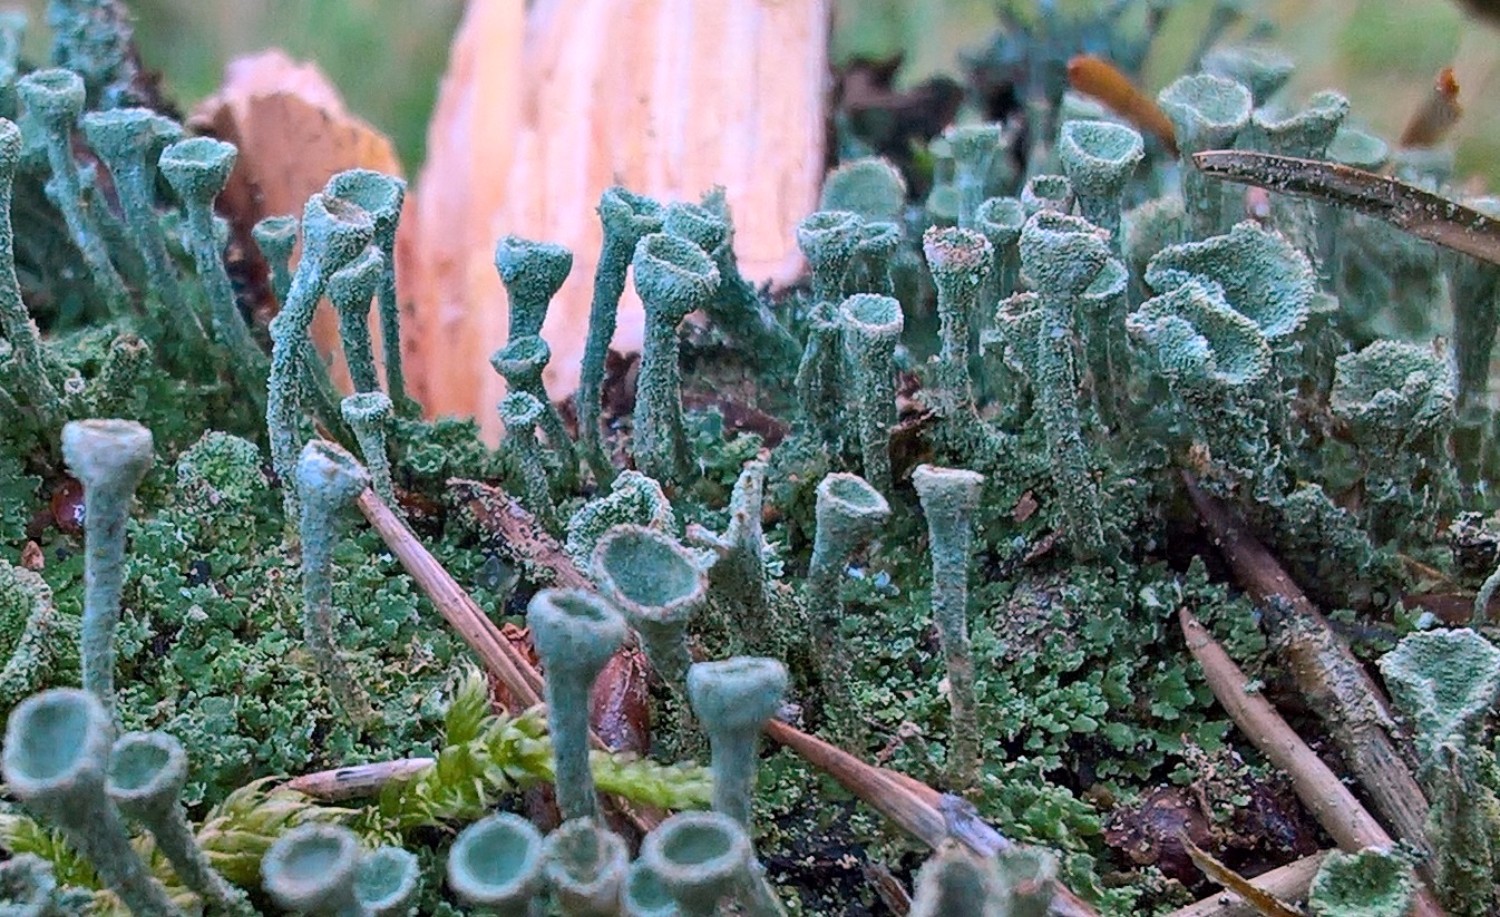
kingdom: Fungi
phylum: Ascomycota
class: Lecanoromycetes
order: Lecanorales
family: Cladoniaceae
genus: Cladonia
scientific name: Cladonia
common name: brungrøn bægerlav
